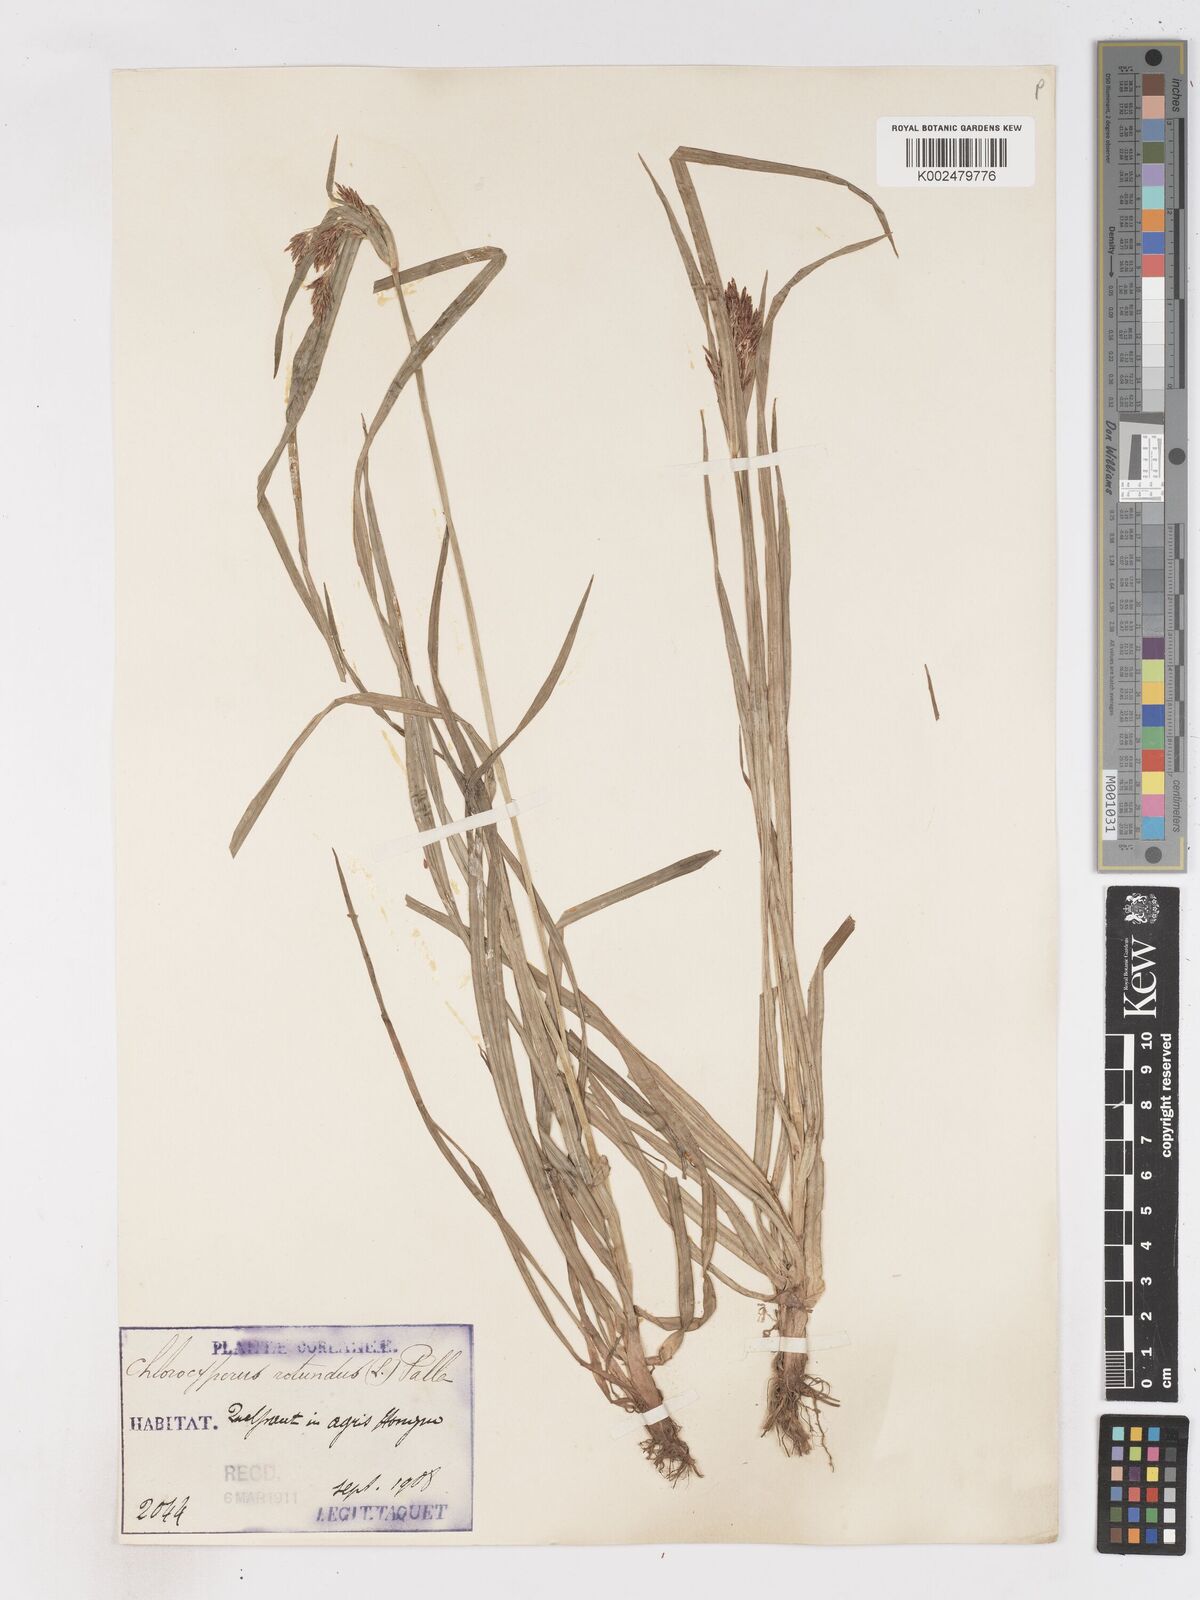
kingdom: Plantae
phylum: Tracheophyta
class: Liliopsida
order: Poales
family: Cyperaceae
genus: Cyperus
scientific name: Cyperus rotundus
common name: Nutgrass
